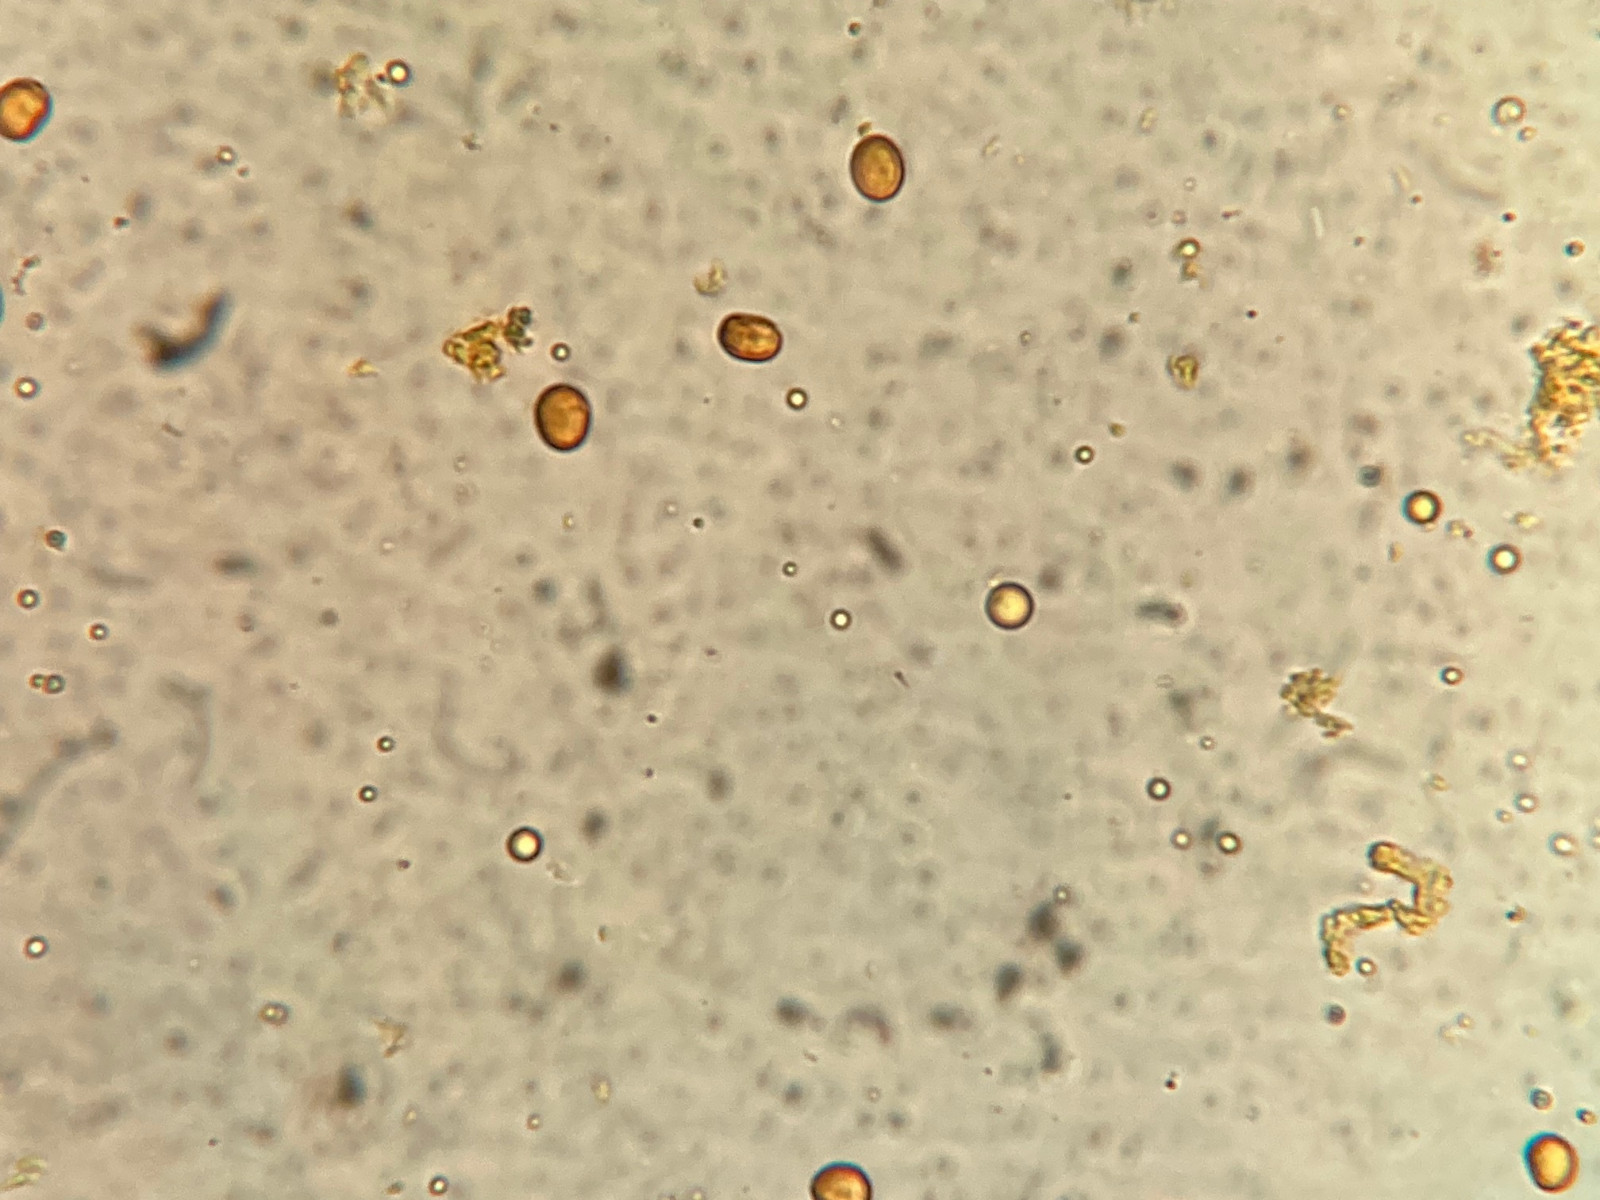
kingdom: Fungi
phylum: Basidiomycota
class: Agaricomycetes
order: Boletales
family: Coniophoraceae
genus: Penttilamyces
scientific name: Penttilamyces romellii
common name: Romells hussvamp
